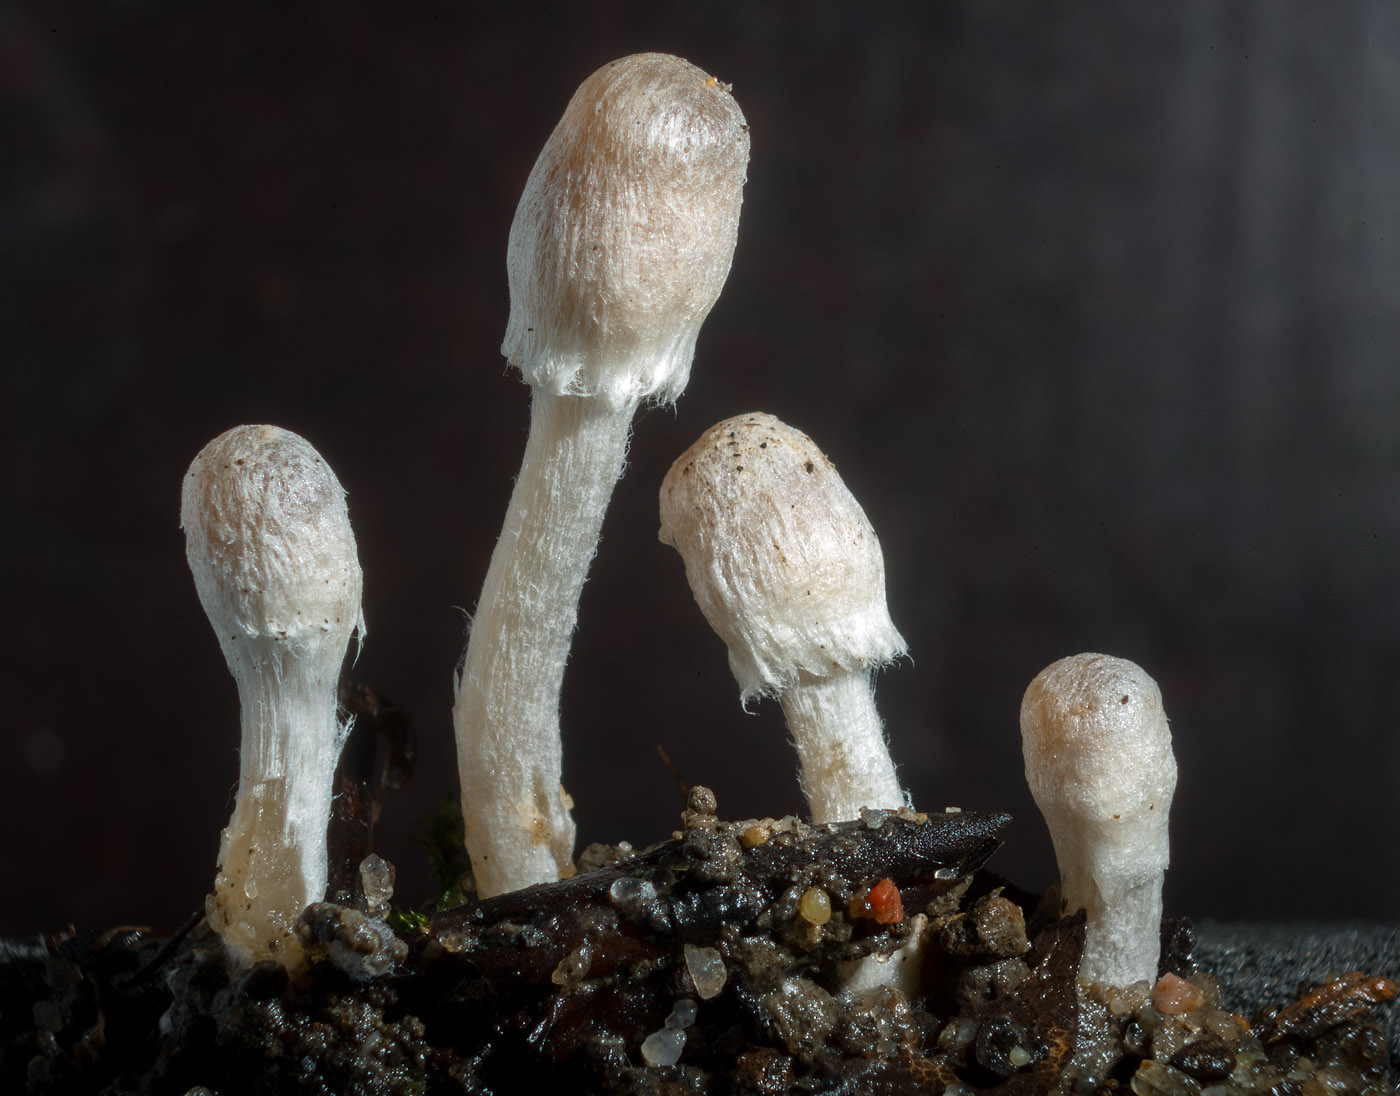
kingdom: Fungi
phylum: Basidiomycota
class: Agaricomycetes
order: Agaricales
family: Psathyrellaceae
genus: Coprinopsis
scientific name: Coprinopsis canoceps
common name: gråhåret blækhat
